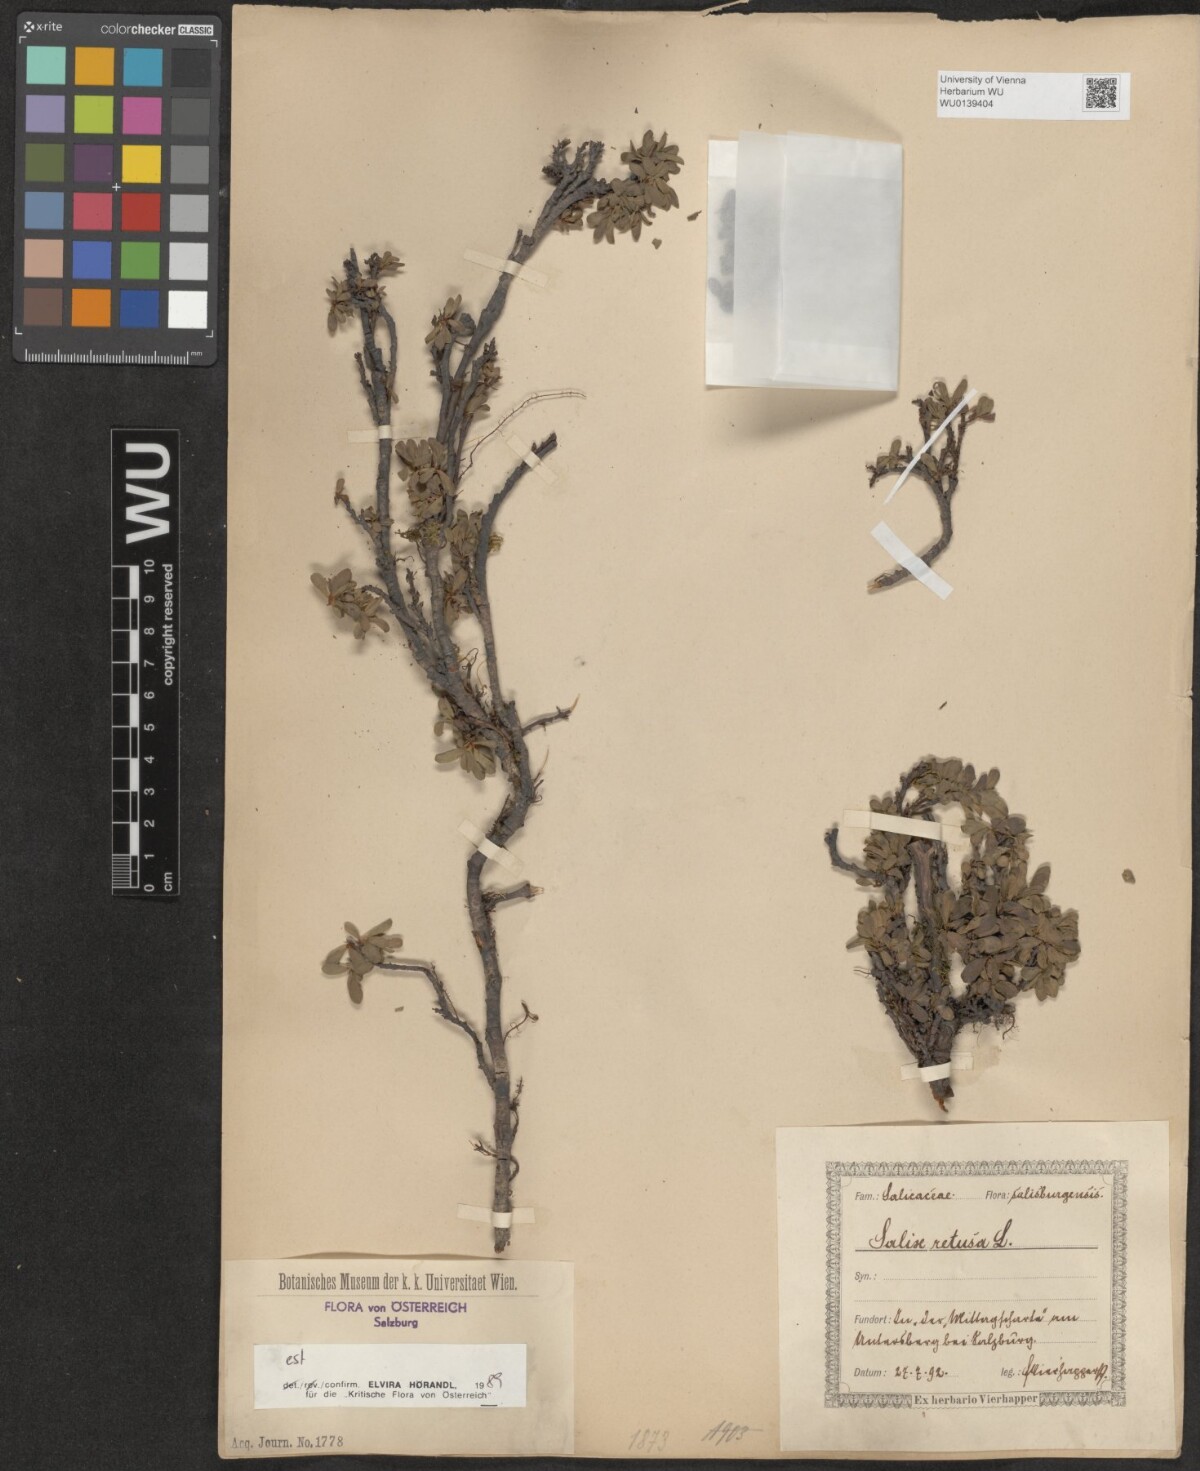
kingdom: Plantae
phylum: Tracheophyta
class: Magnoliopsida
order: Malpighiales
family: Salicaceae
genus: Salix
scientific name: Salix retusa
